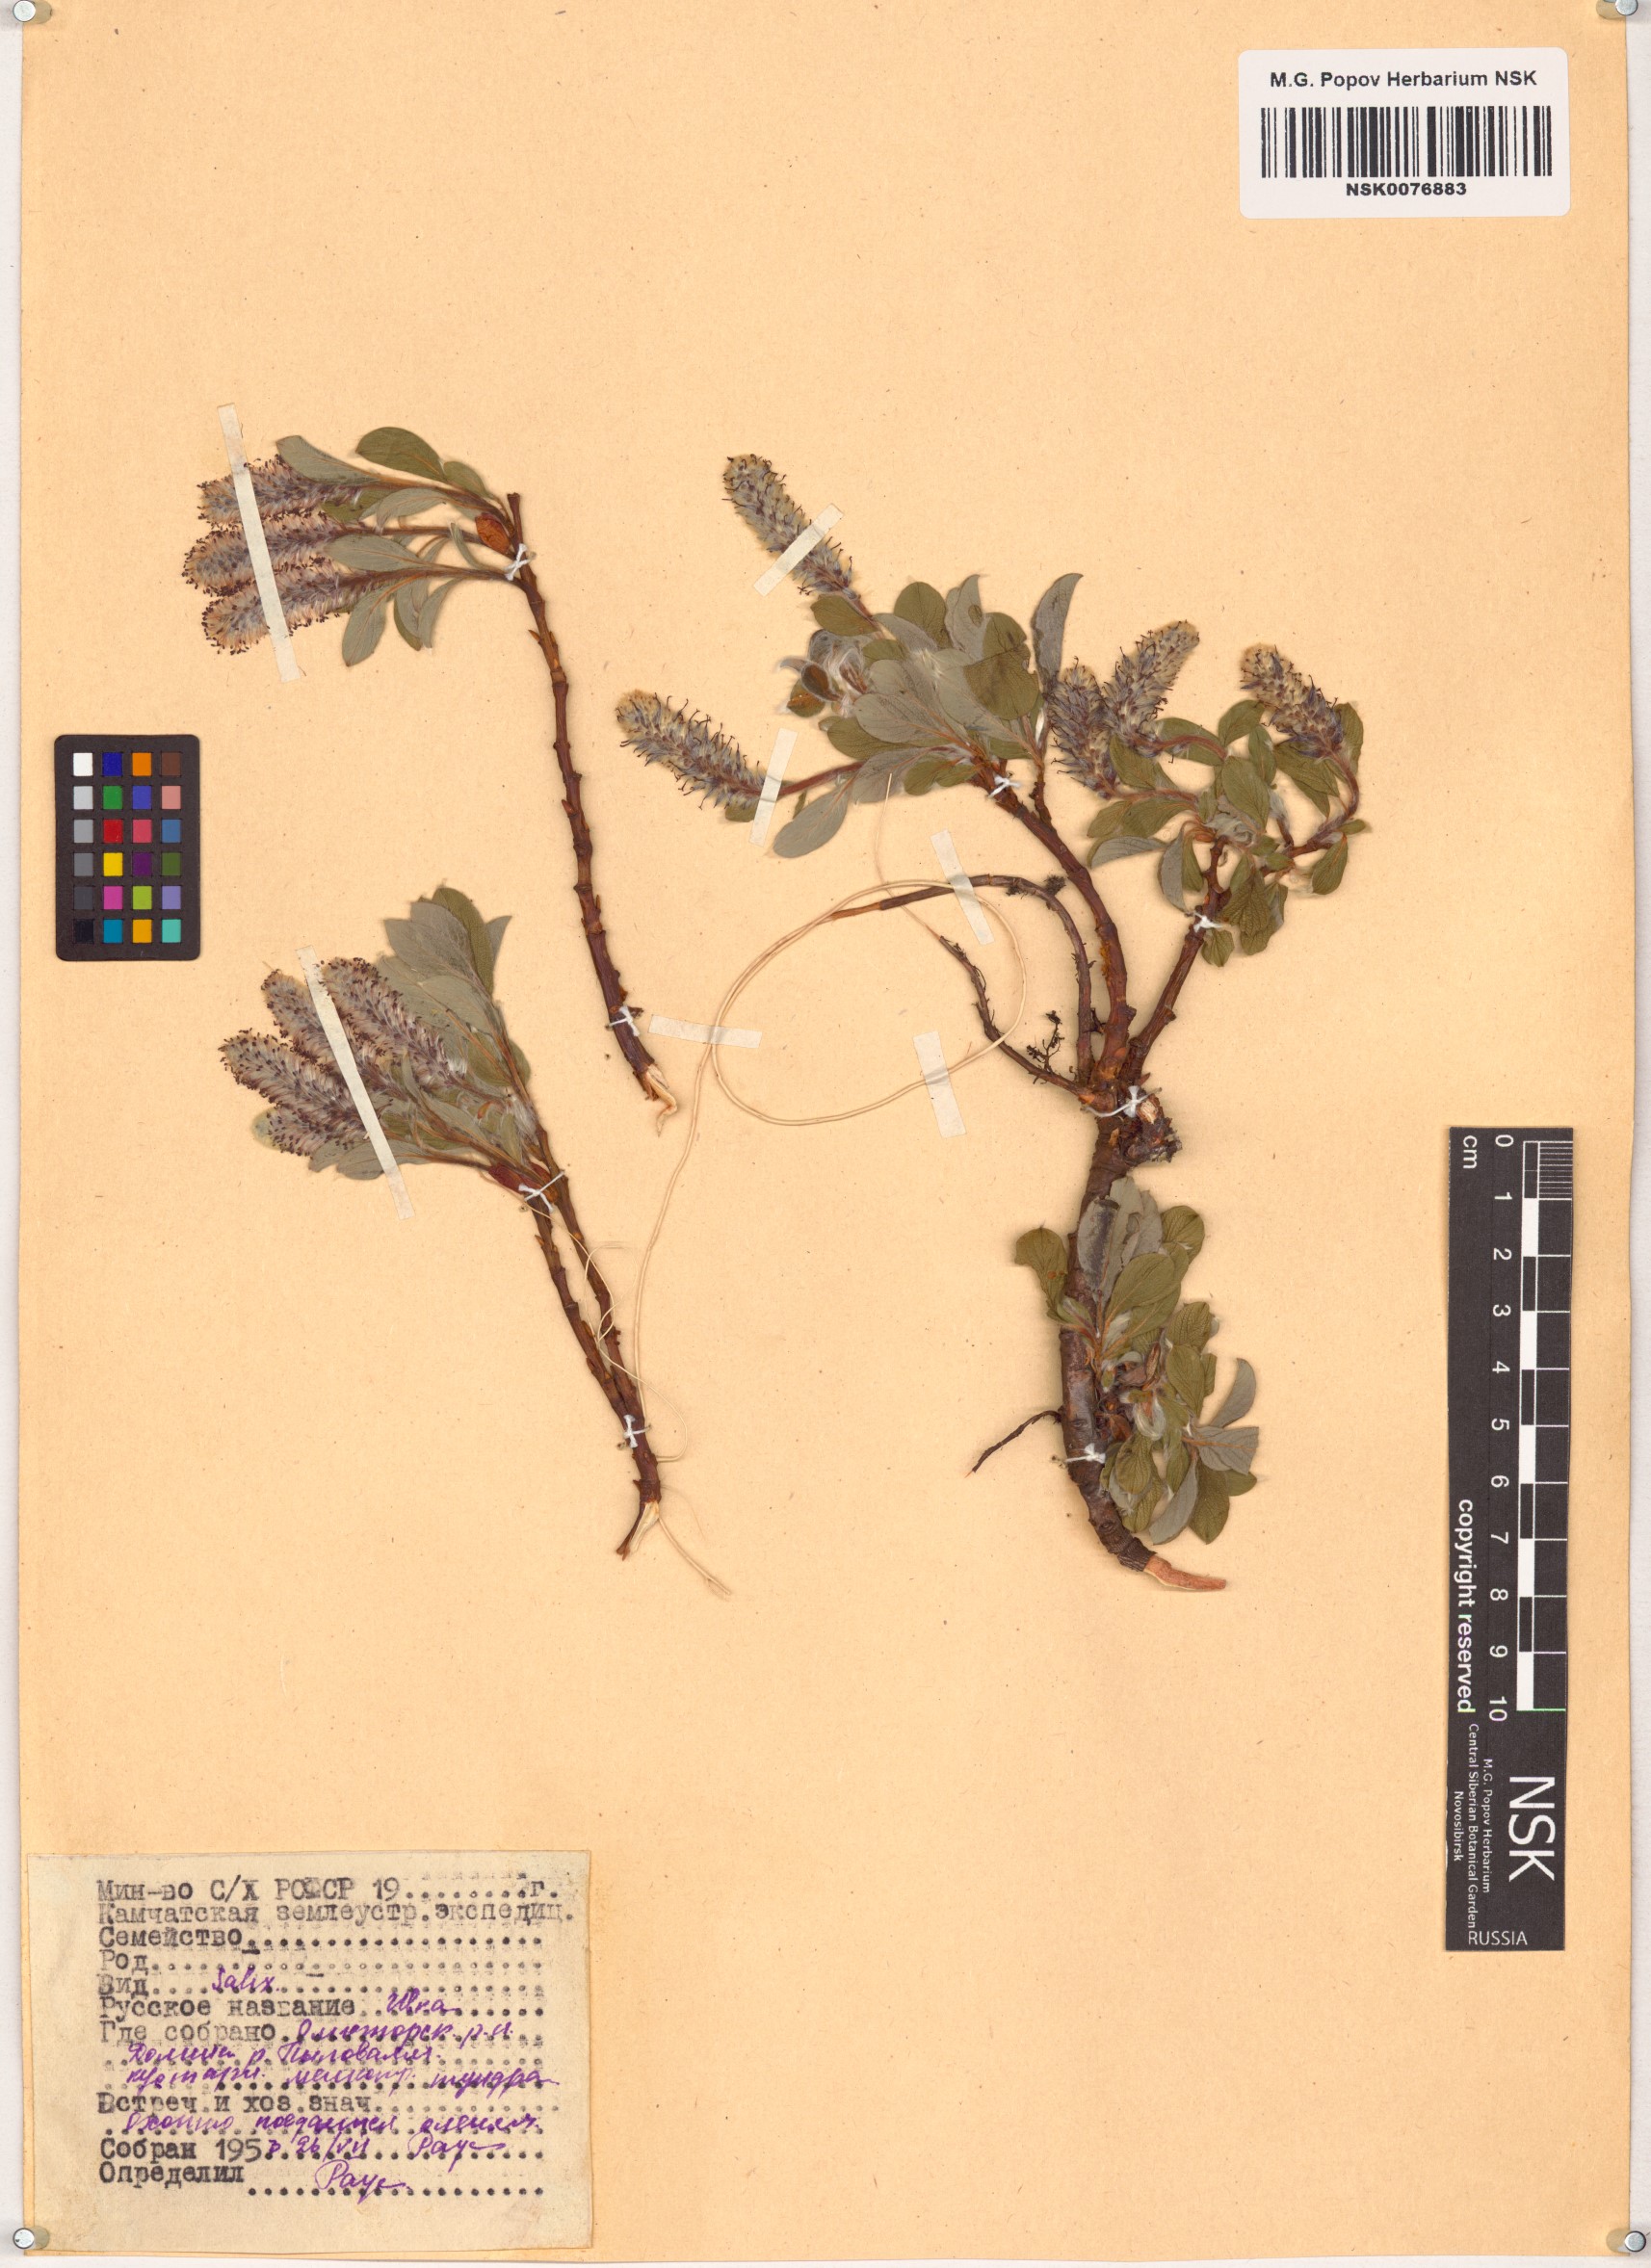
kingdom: Plantae
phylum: Tracheophyta
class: Magnoliopsida
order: Malpighiales
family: Salicaceae
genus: Salix
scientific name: Salix
